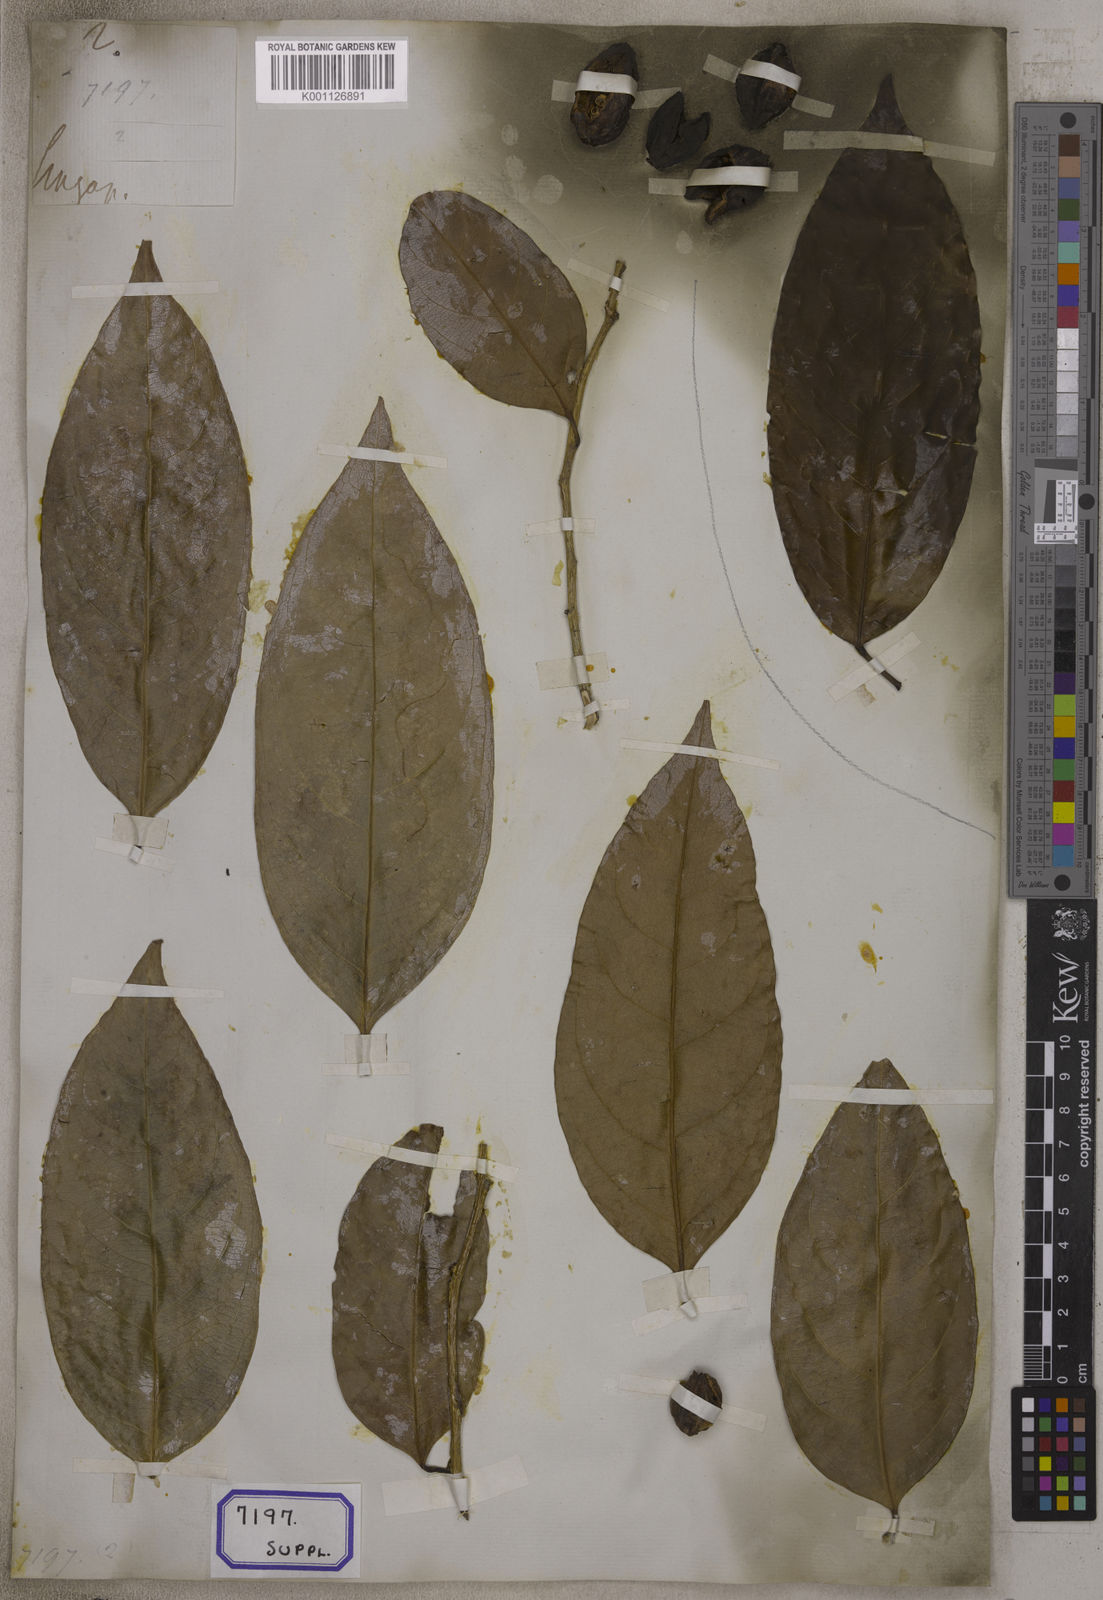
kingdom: Plantae
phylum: Tracheophyta
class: Magnoliopsida
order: Malpighiales
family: Salicaceae
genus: Casearia
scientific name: Casearia
